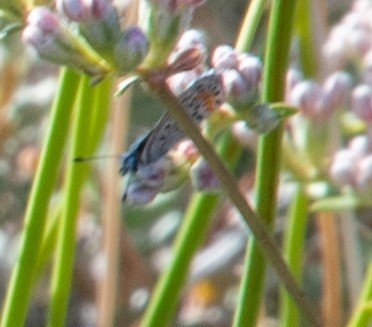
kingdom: Animalia
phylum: Arthropoda
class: Insecta
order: Lepidoptera
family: Lycaenidae
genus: Euphilotes
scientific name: Euphilotes mojave
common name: Mojave Blue
